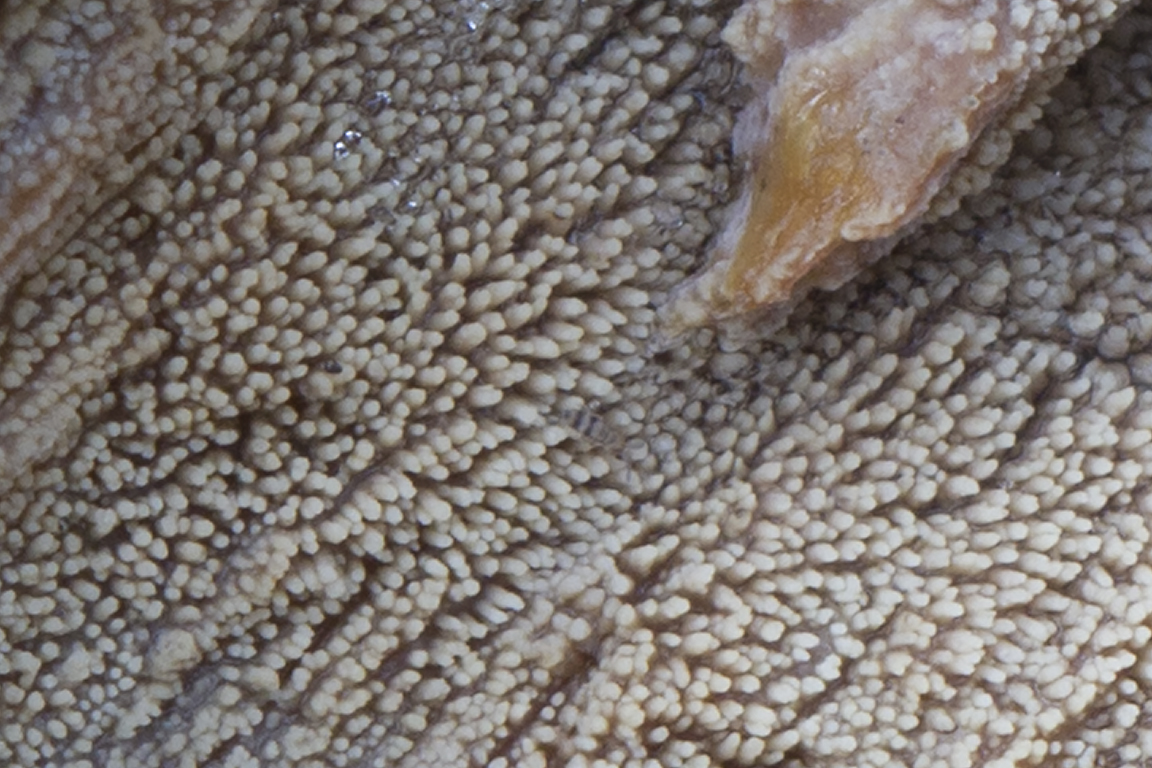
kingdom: Fungi
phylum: Basidiomycota
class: Agaricomycetes
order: Hymenochaetales
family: Repetobasidiaceae
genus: Skvortzovia
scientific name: Skvortzovia pinicola
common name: pigget vokstand
